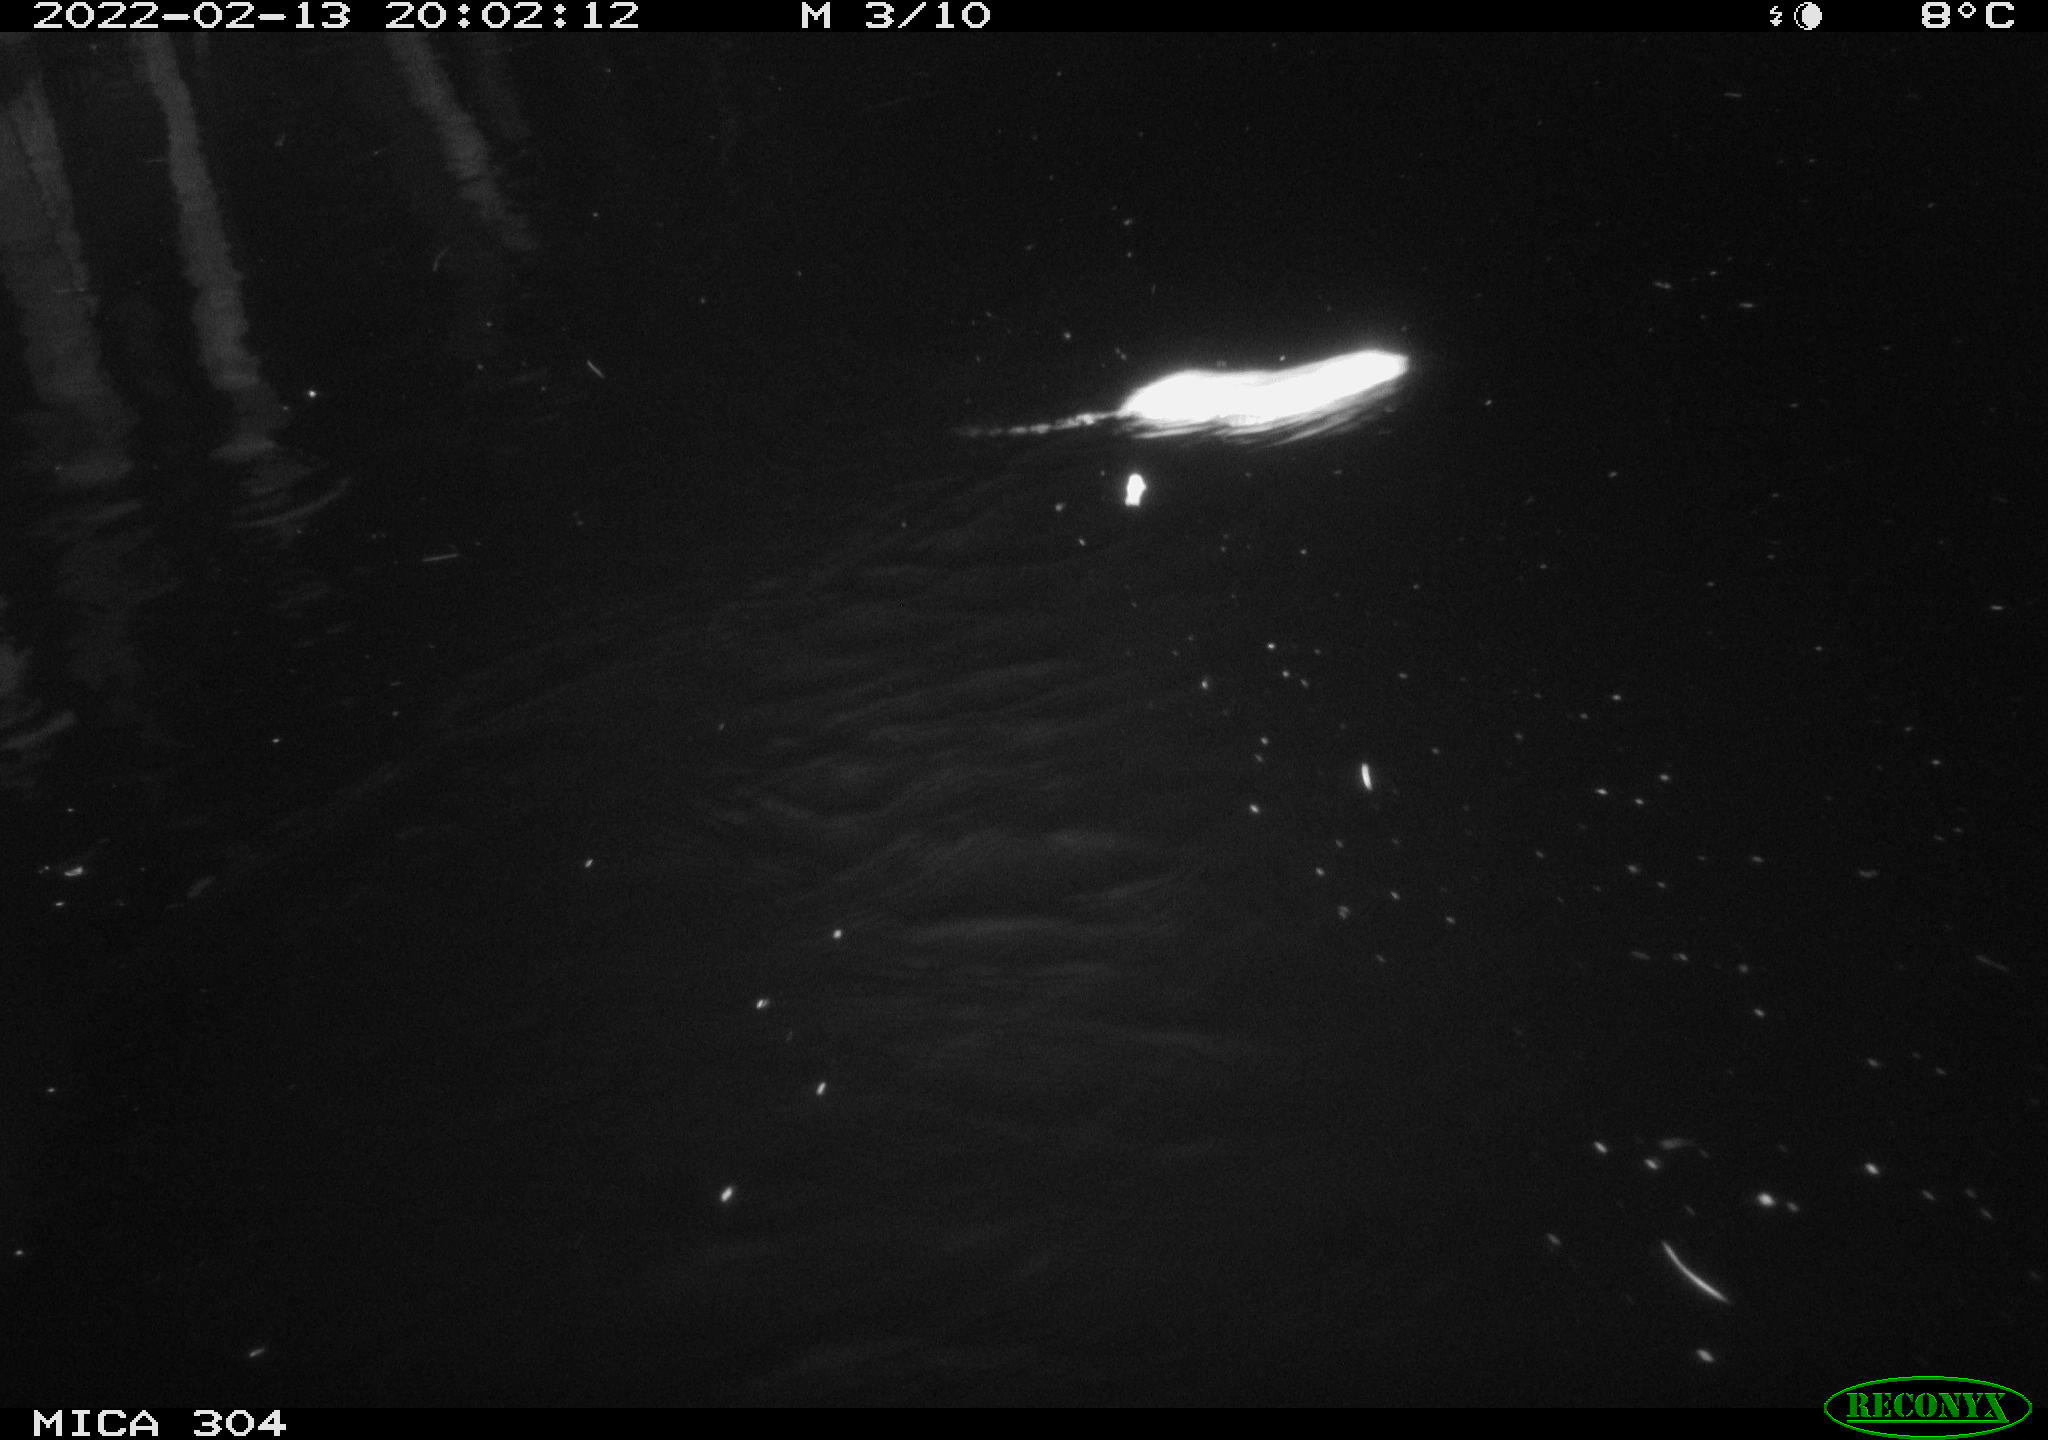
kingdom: Animalia
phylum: Chordata
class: Mammalia
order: Rodentia
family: Muridae
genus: Rattus
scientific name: Rattus norvegicus
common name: Brown rat
